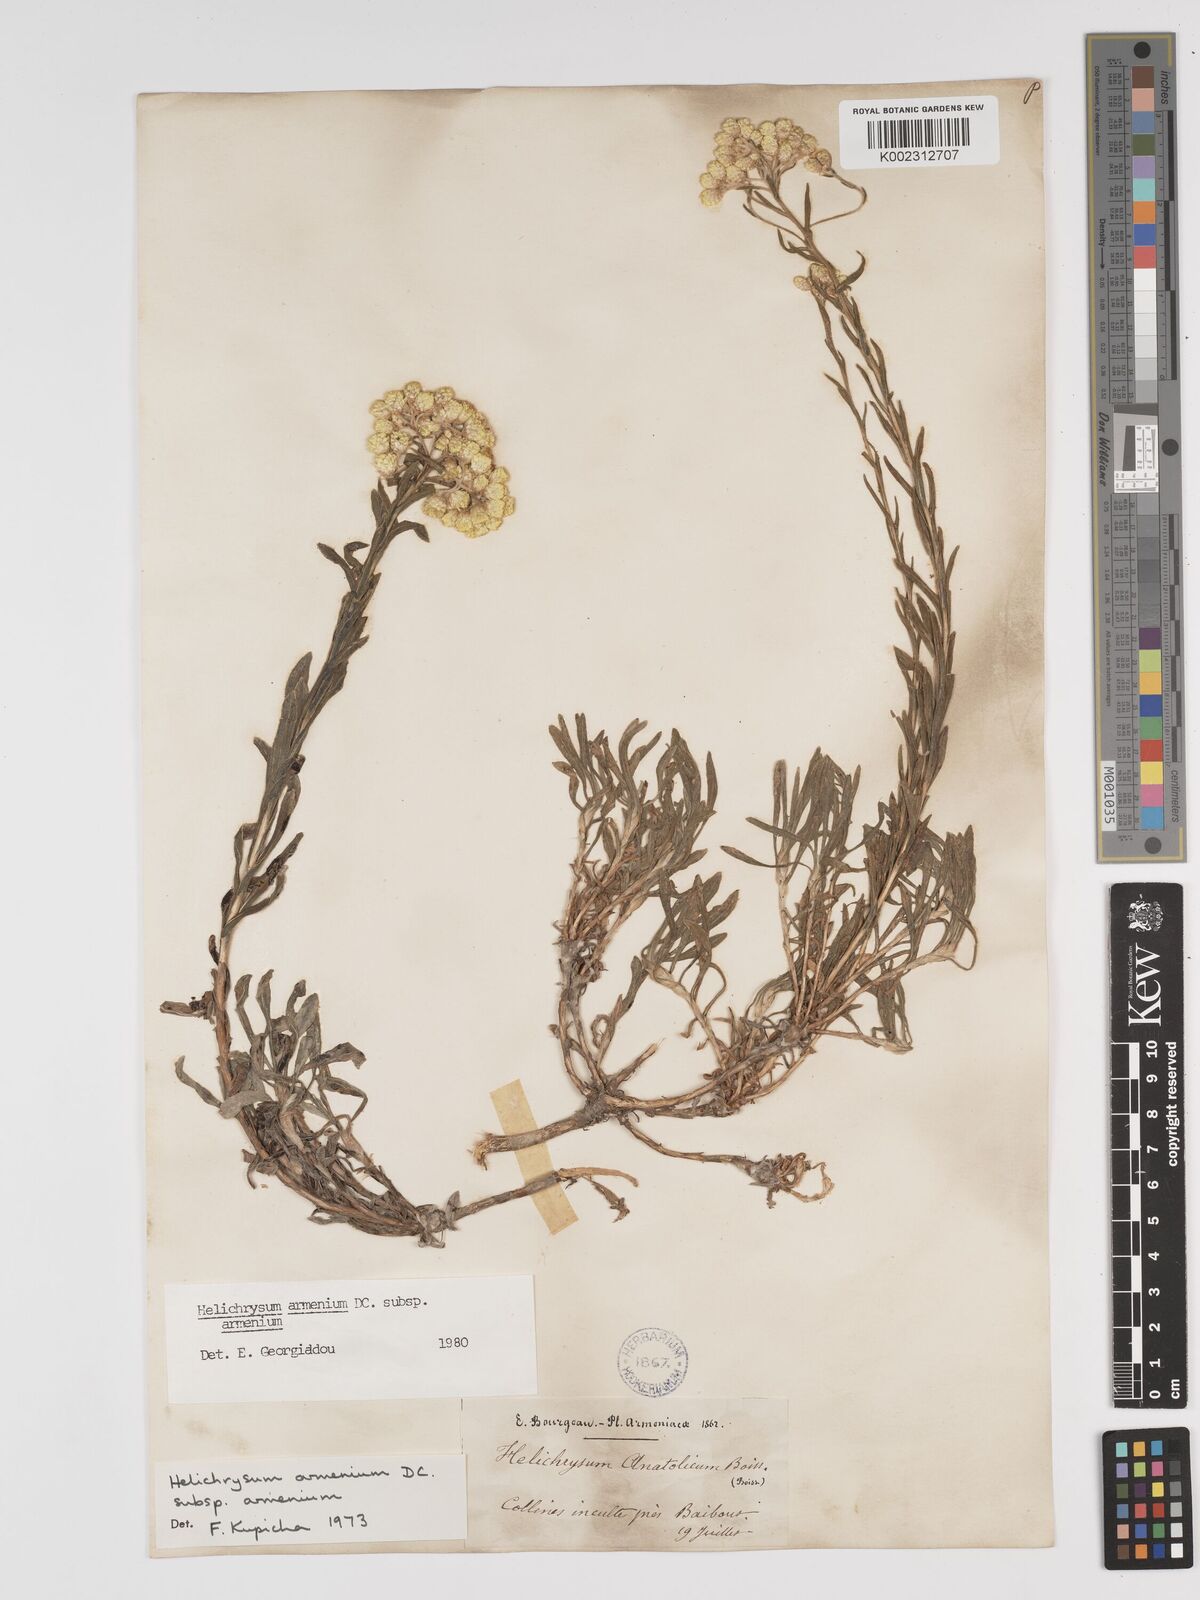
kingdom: Plantae
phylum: Tracheophyta
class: Magnoliopsida
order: Asterales
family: Asteraceae
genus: Helichrysum
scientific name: Helichrysum armenium
